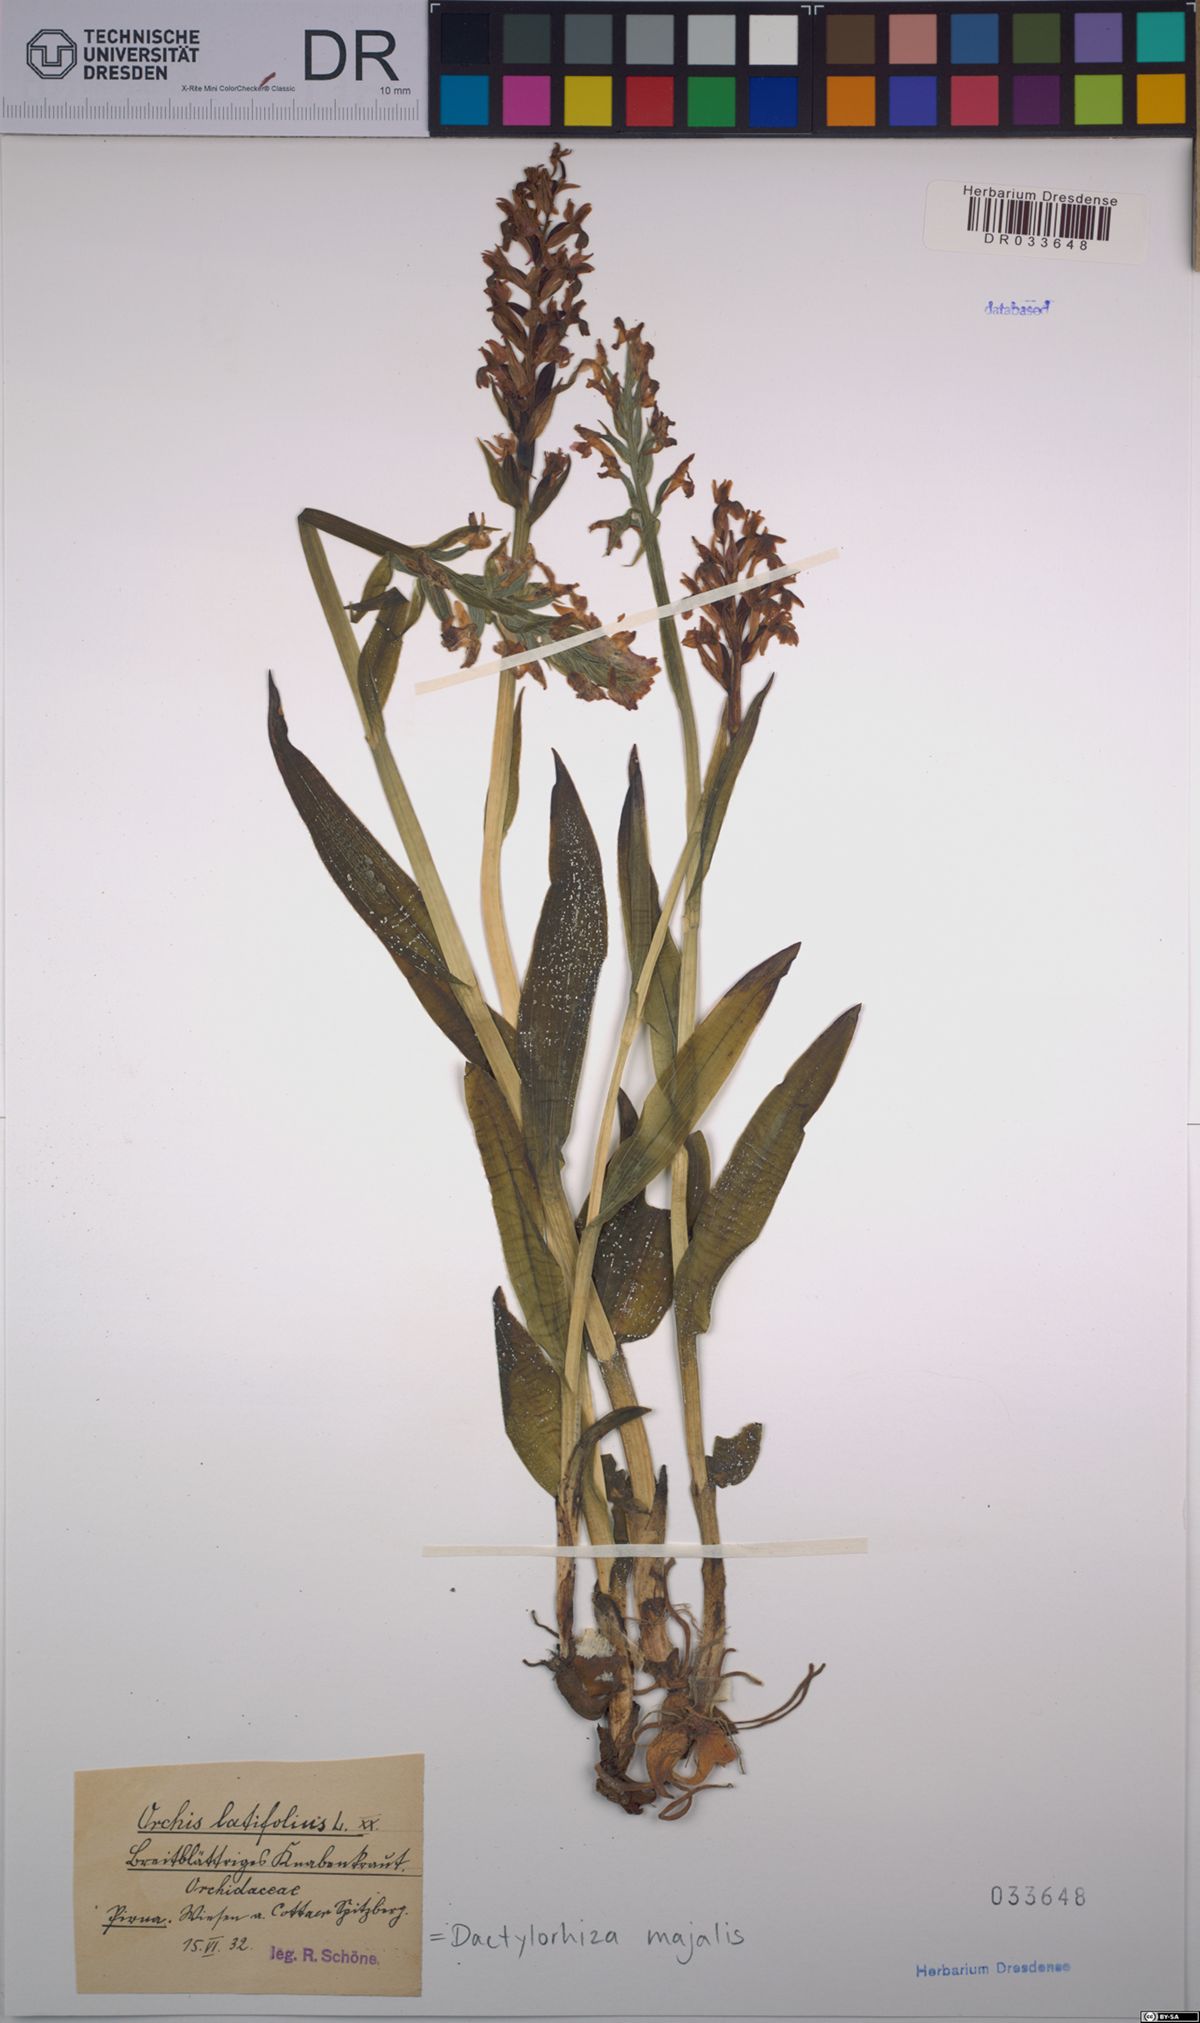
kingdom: Plantae
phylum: Tracheophyta
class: Liliopsida
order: Asparagales
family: Orchidaceae
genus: Dactylorhiza
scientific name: Dactylorhiza majalis
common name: Marsh orchid
